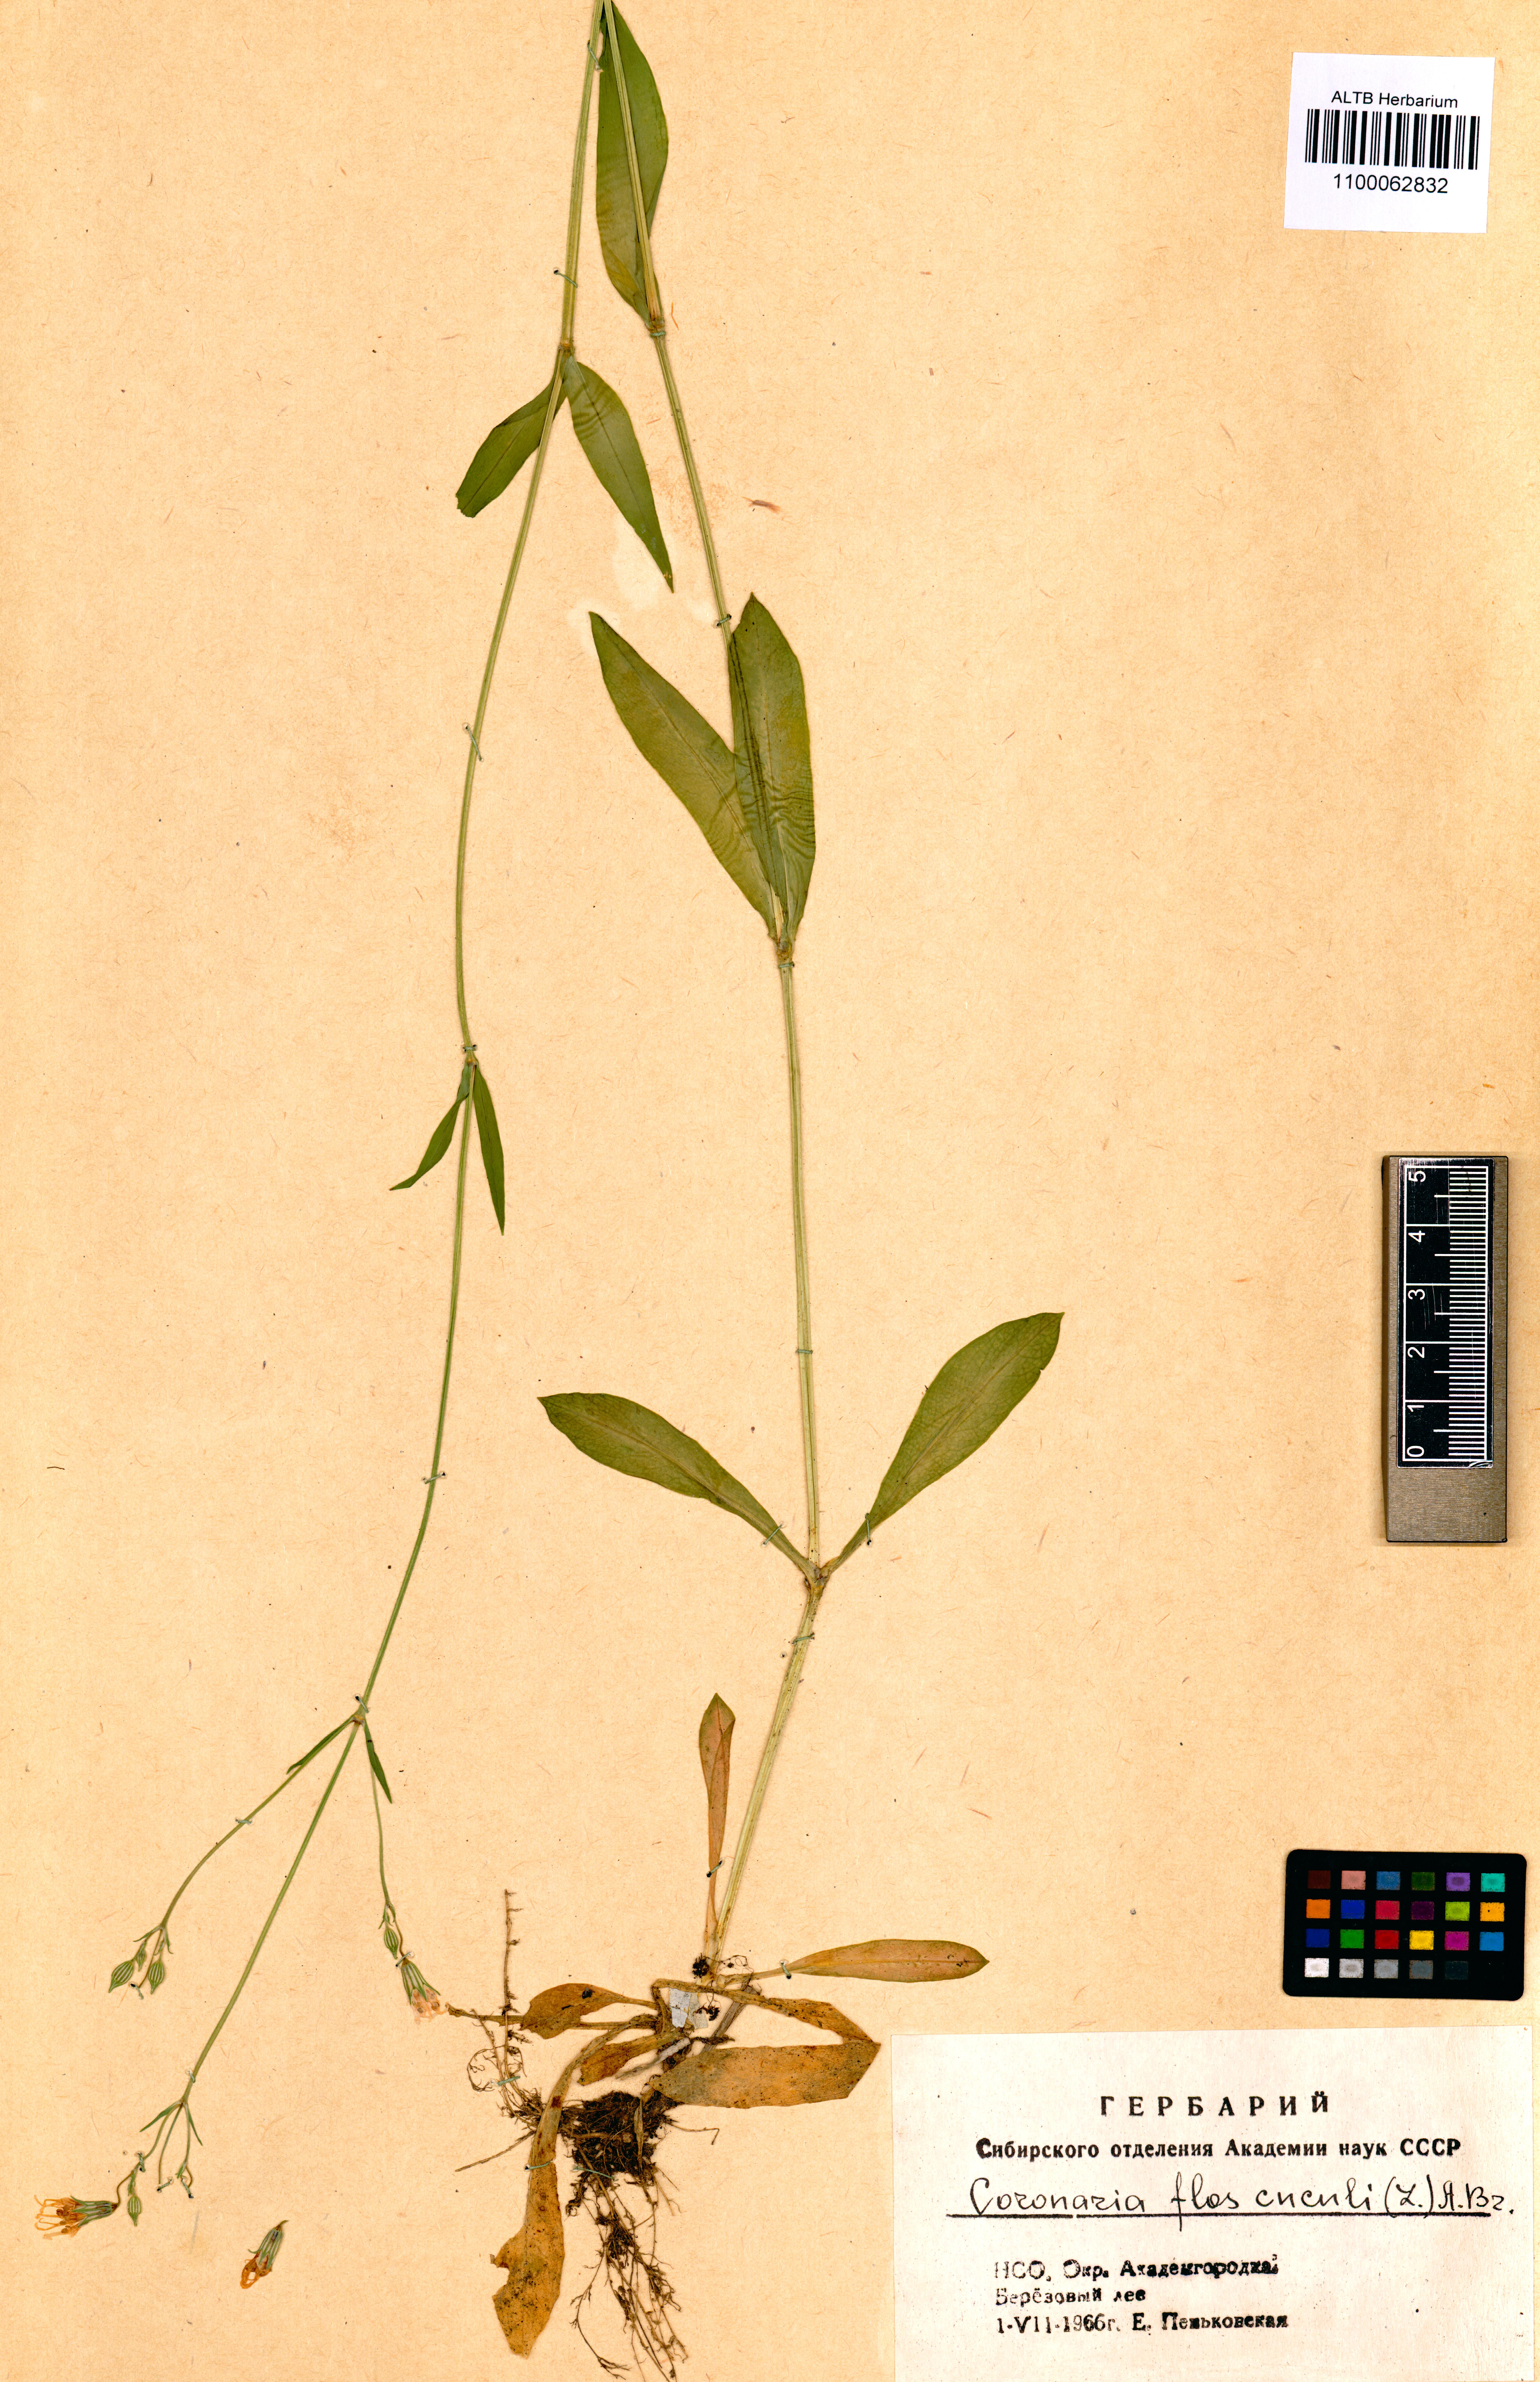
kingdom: Plantae
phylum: Tracheophyta
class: Magnoliopsida
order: Caryophyllales
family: Caryophyllaceae
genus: Silene
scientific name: Silene flos-cuculi
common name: Ragged-robin
